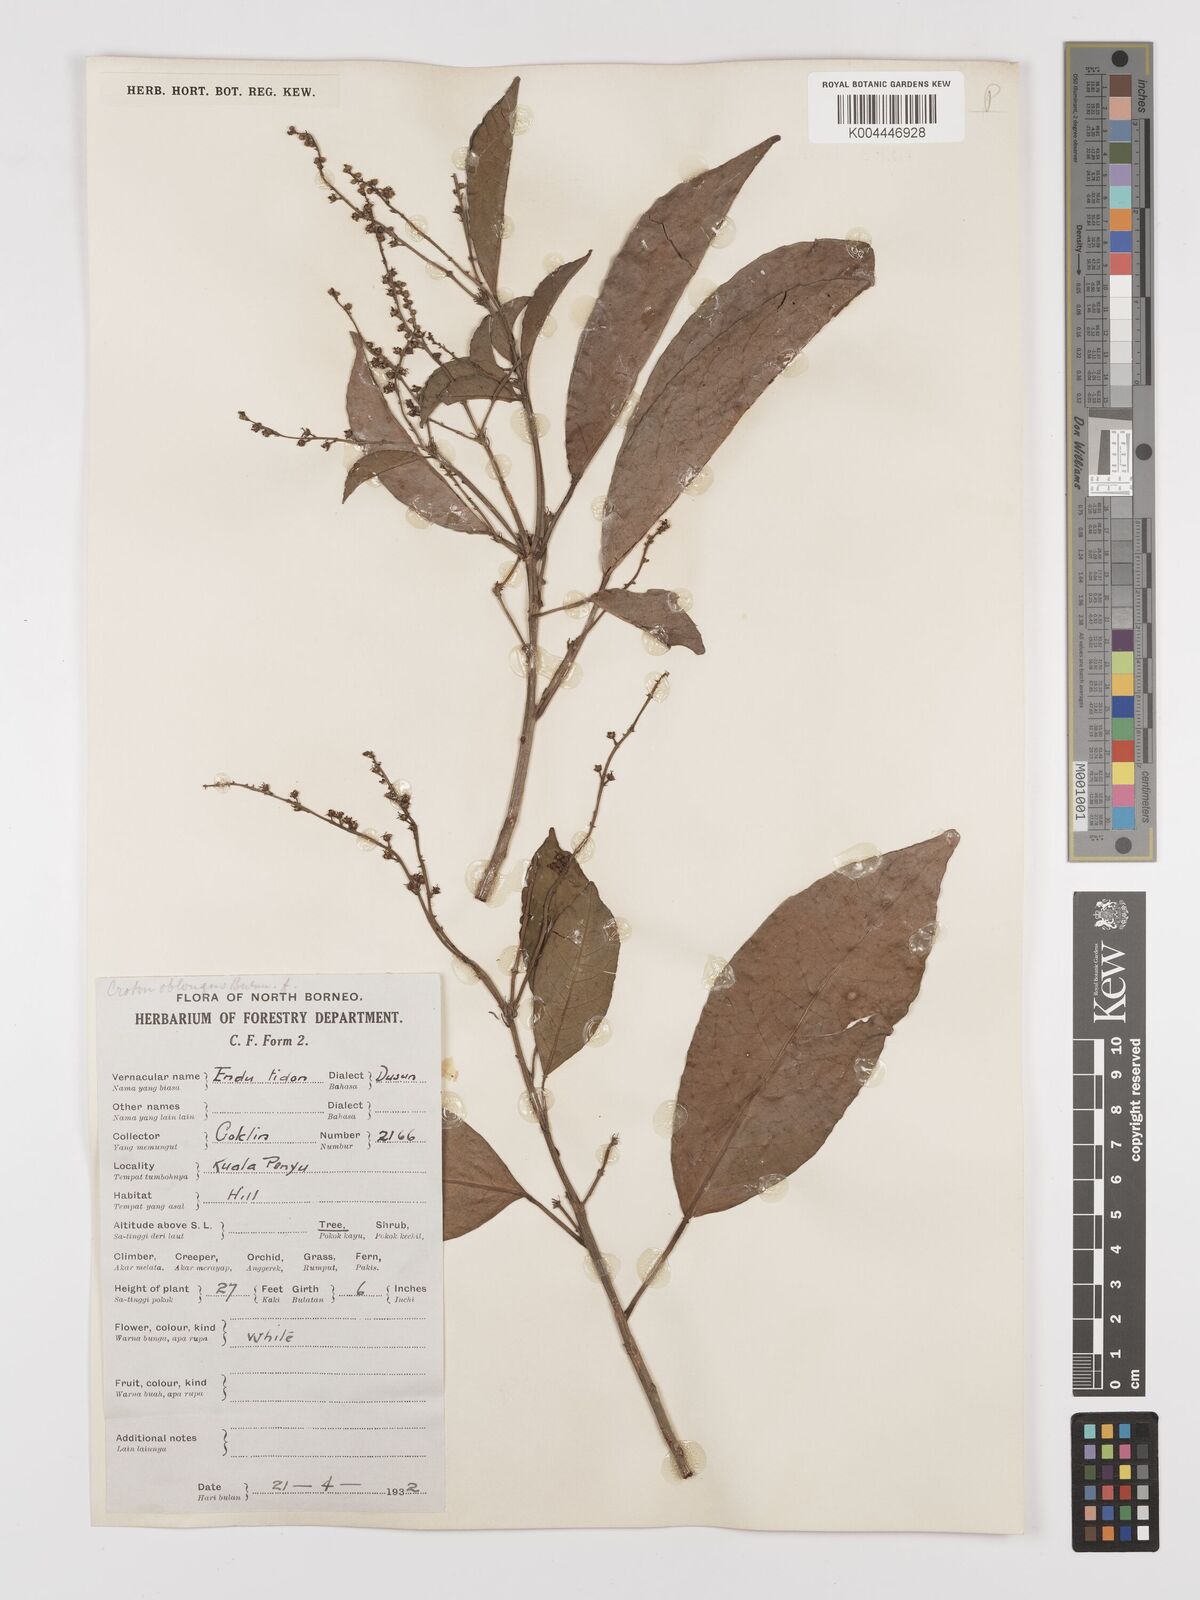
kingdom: Plantae
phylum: Tracheophyta
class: Magnoliopsida
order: Malpighiales
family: Euphorbiaceae
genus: Croton
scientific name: Croton oblongus
